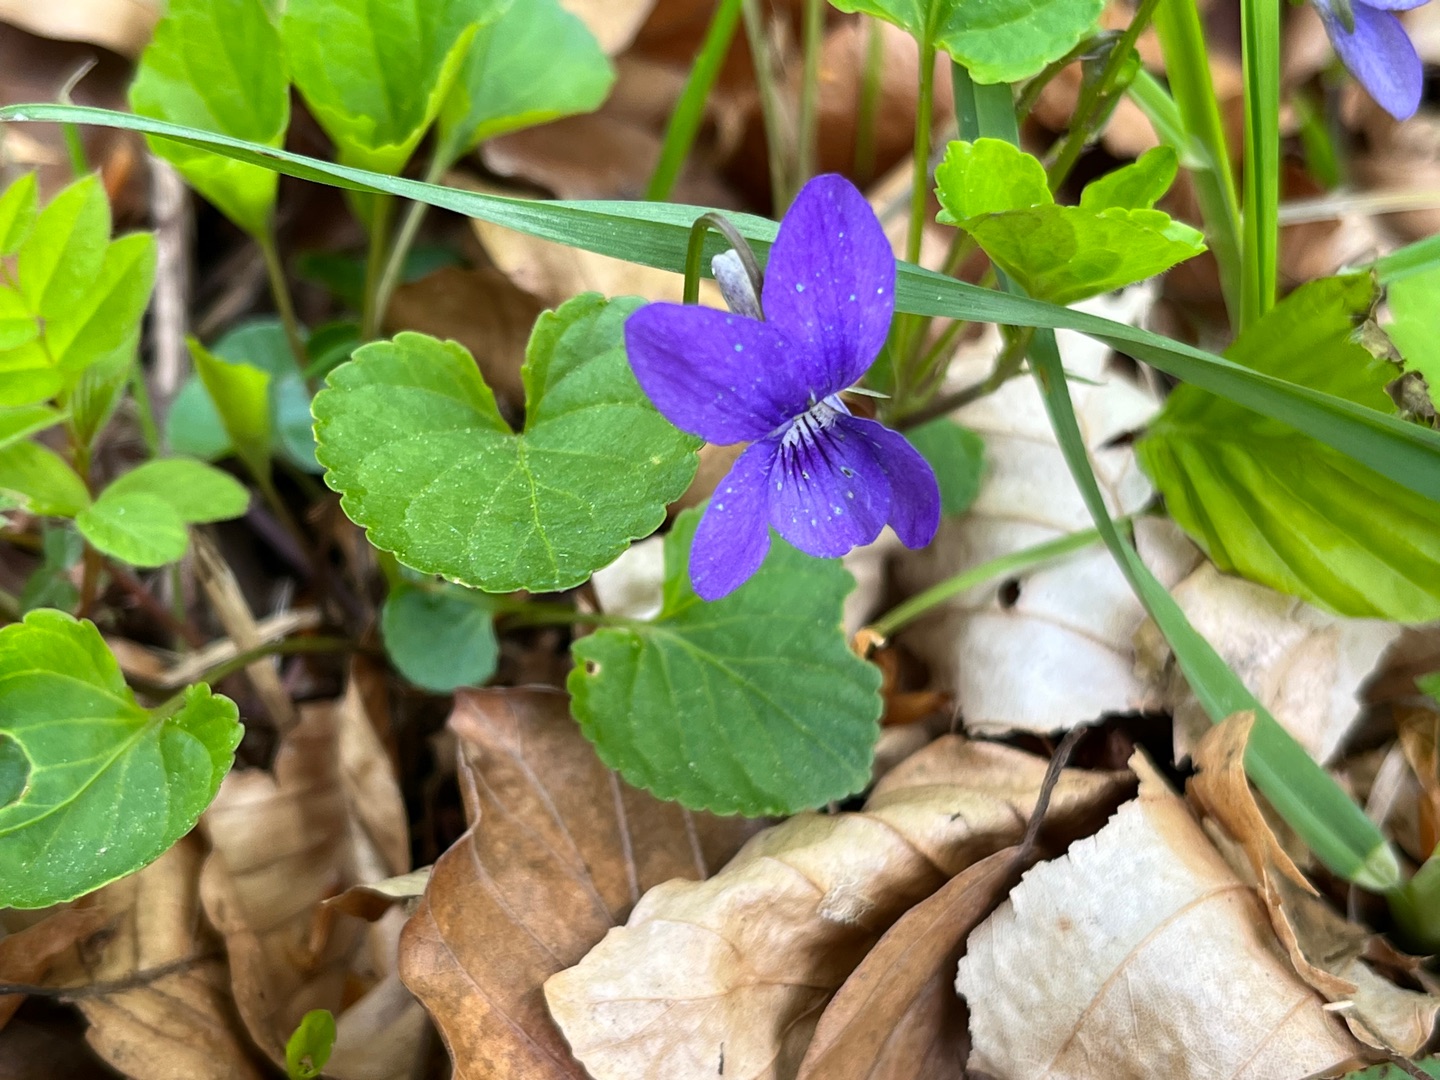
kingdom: Plantae
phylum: Tracheophyta
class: Magnoliopsida
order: Malpighiales
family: Violaceae
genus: Viola
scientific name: Viola riviniana
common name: Krat-viol
